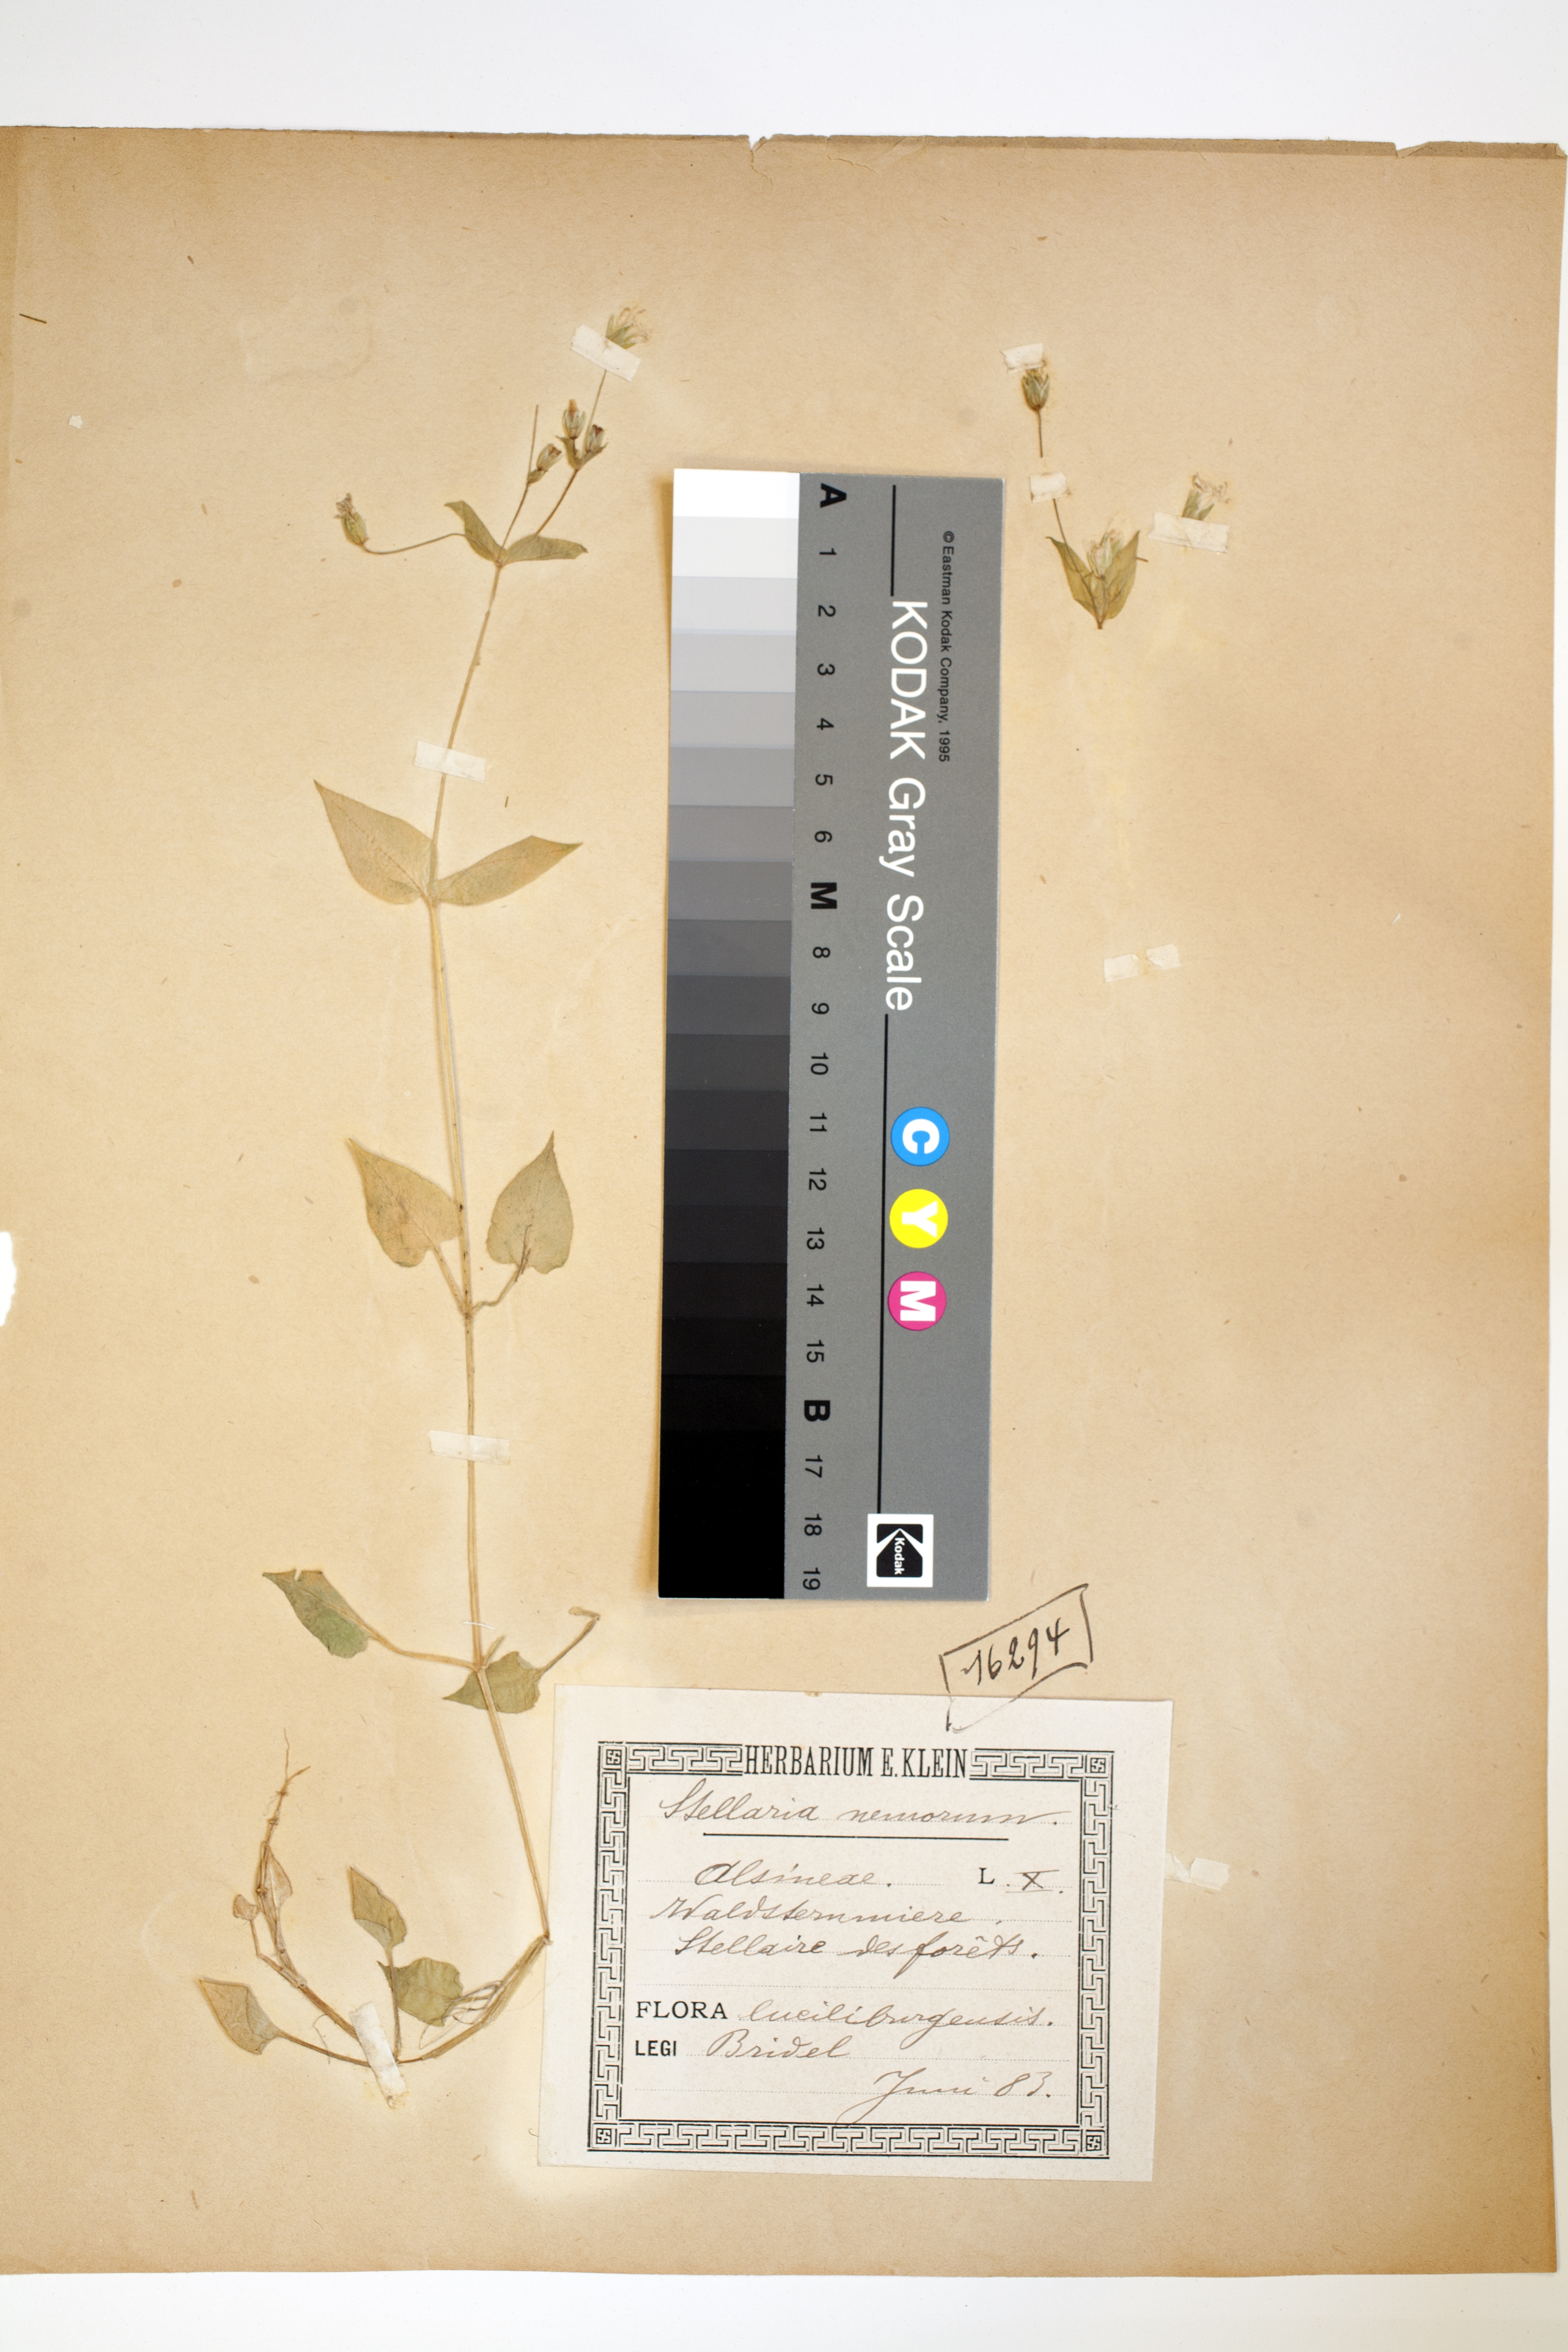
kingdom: Plantae
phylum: Tracheophyta
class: Magnoliopsida
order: Caryophyllales
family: Caryophyllaceae
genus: Stellaria
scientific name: Stellaria nemorum
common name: Wood stitchwort
